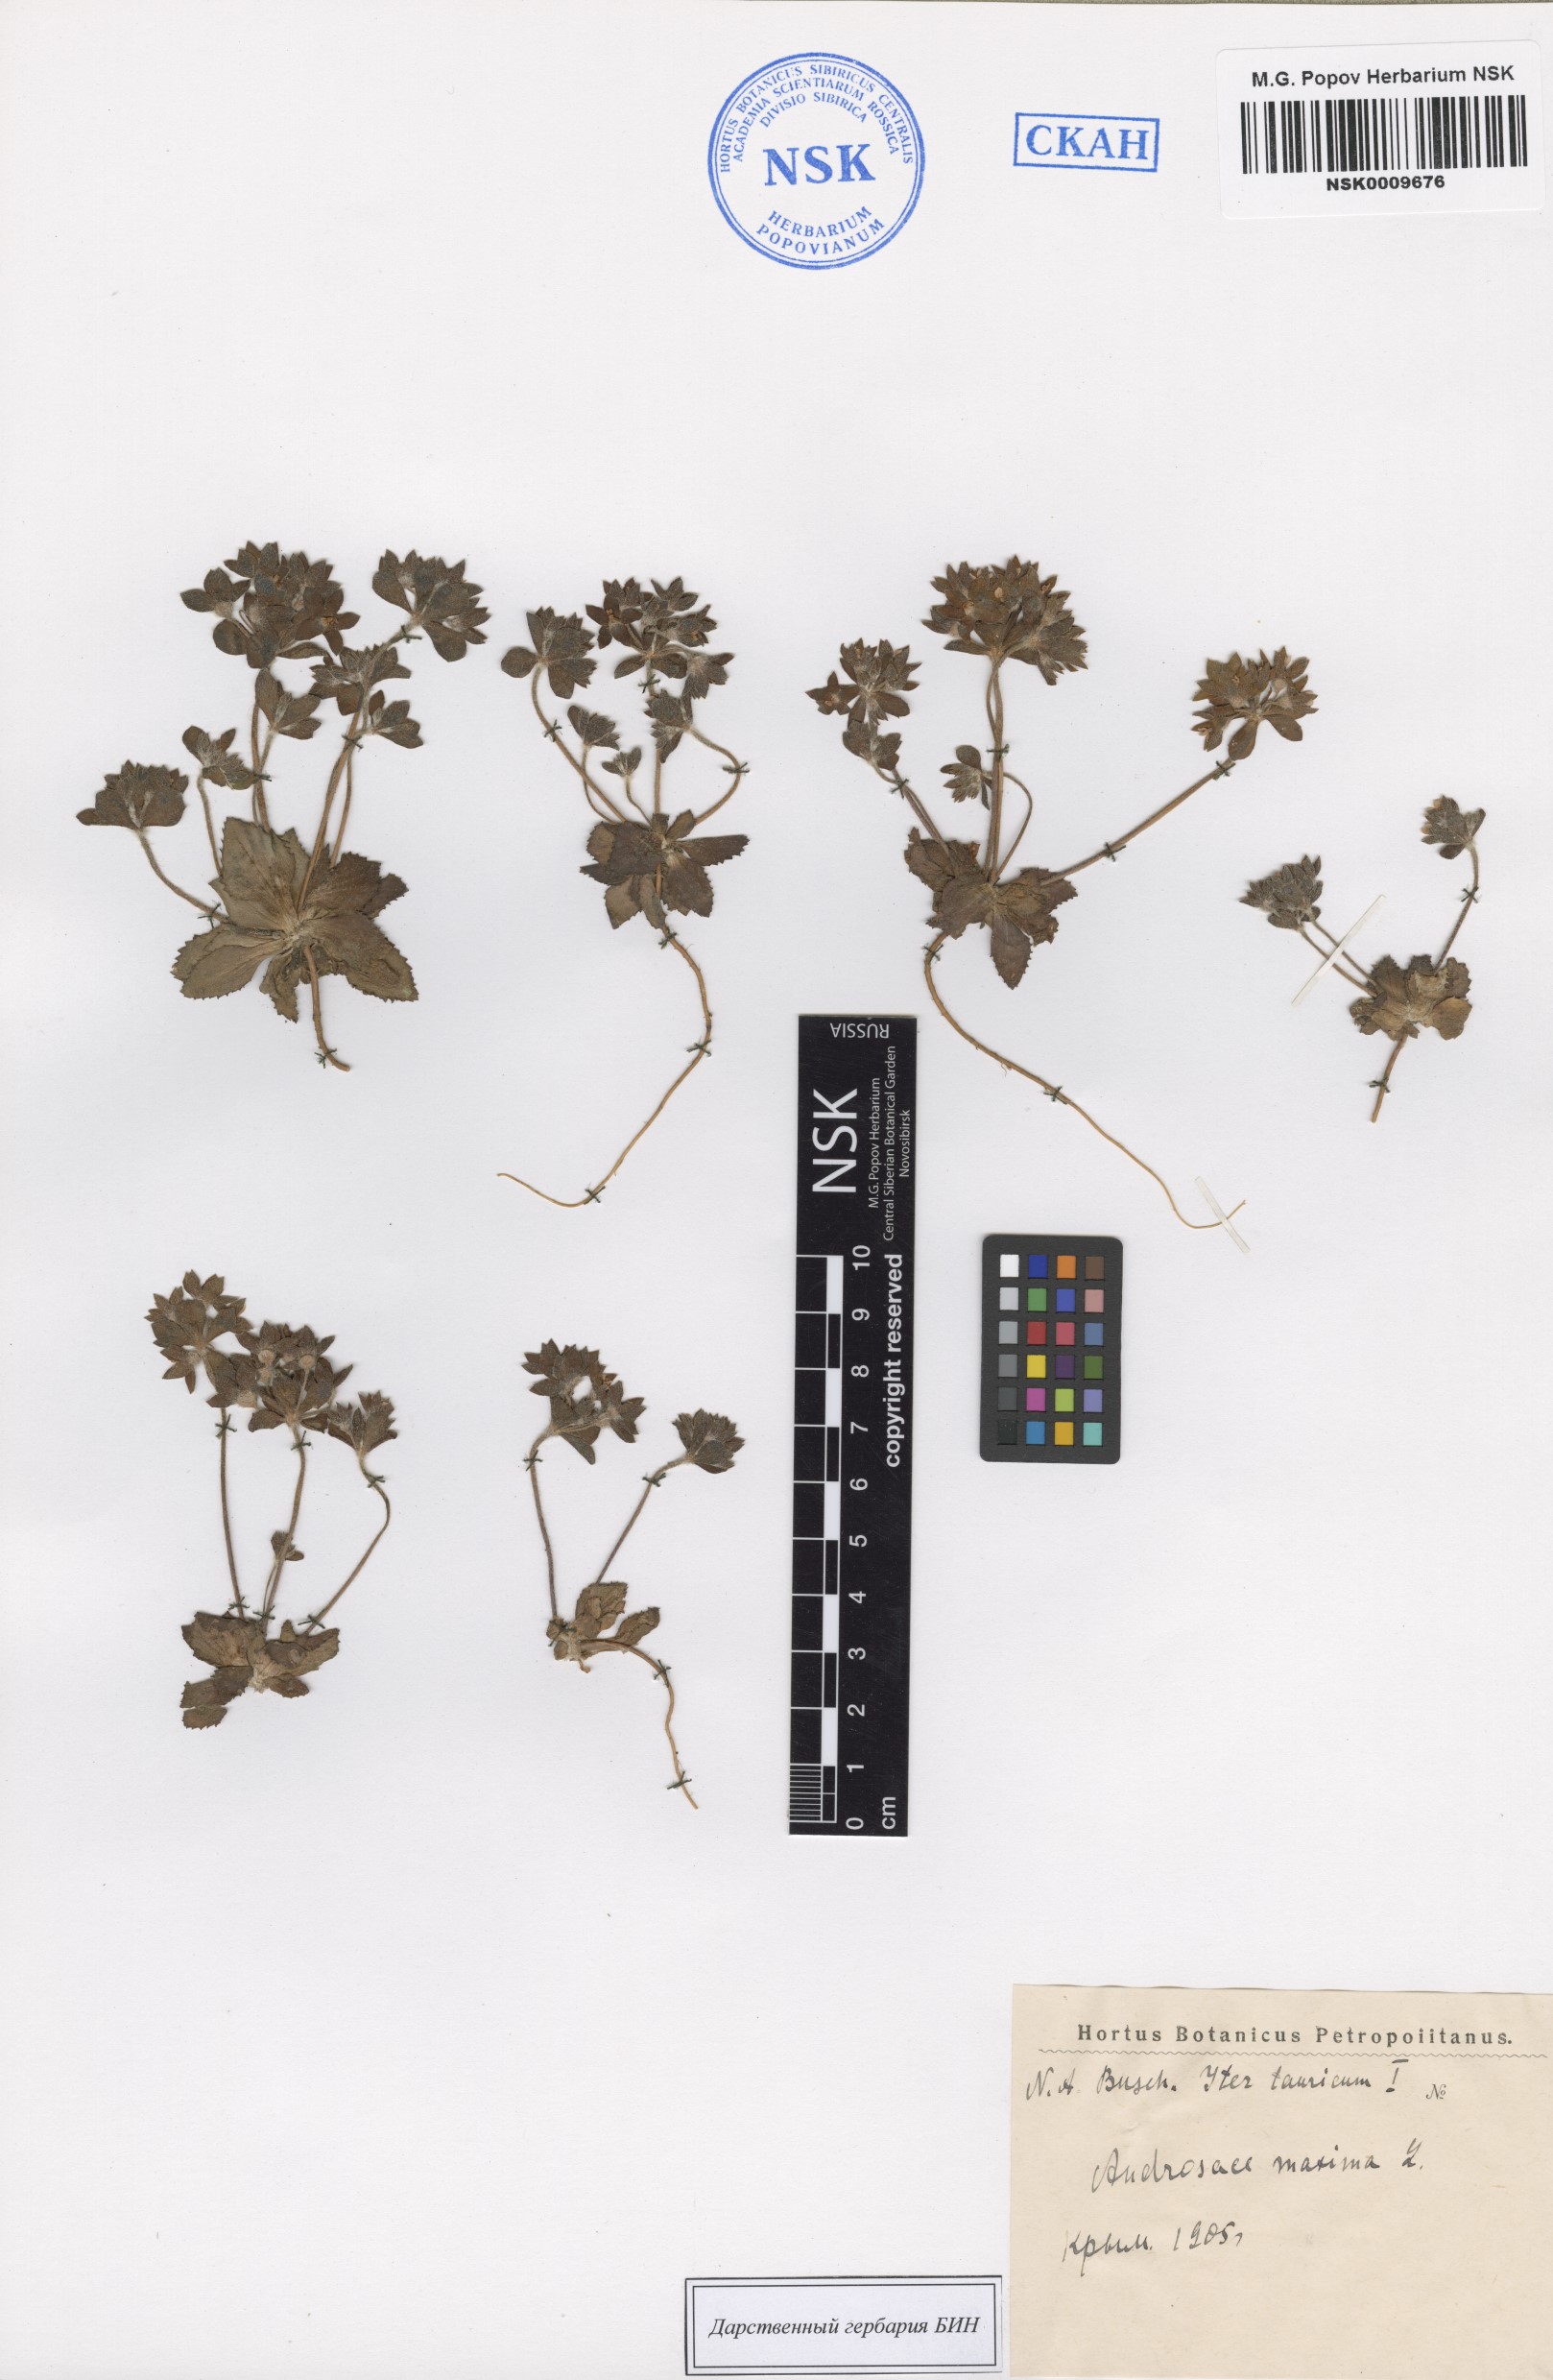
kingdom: Plantae
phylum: Tracheophyta
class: Magnoliopsida
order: Ericales
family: Primulaceae
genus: Androsace
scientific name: Androsace maxima
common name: Annual androsace
